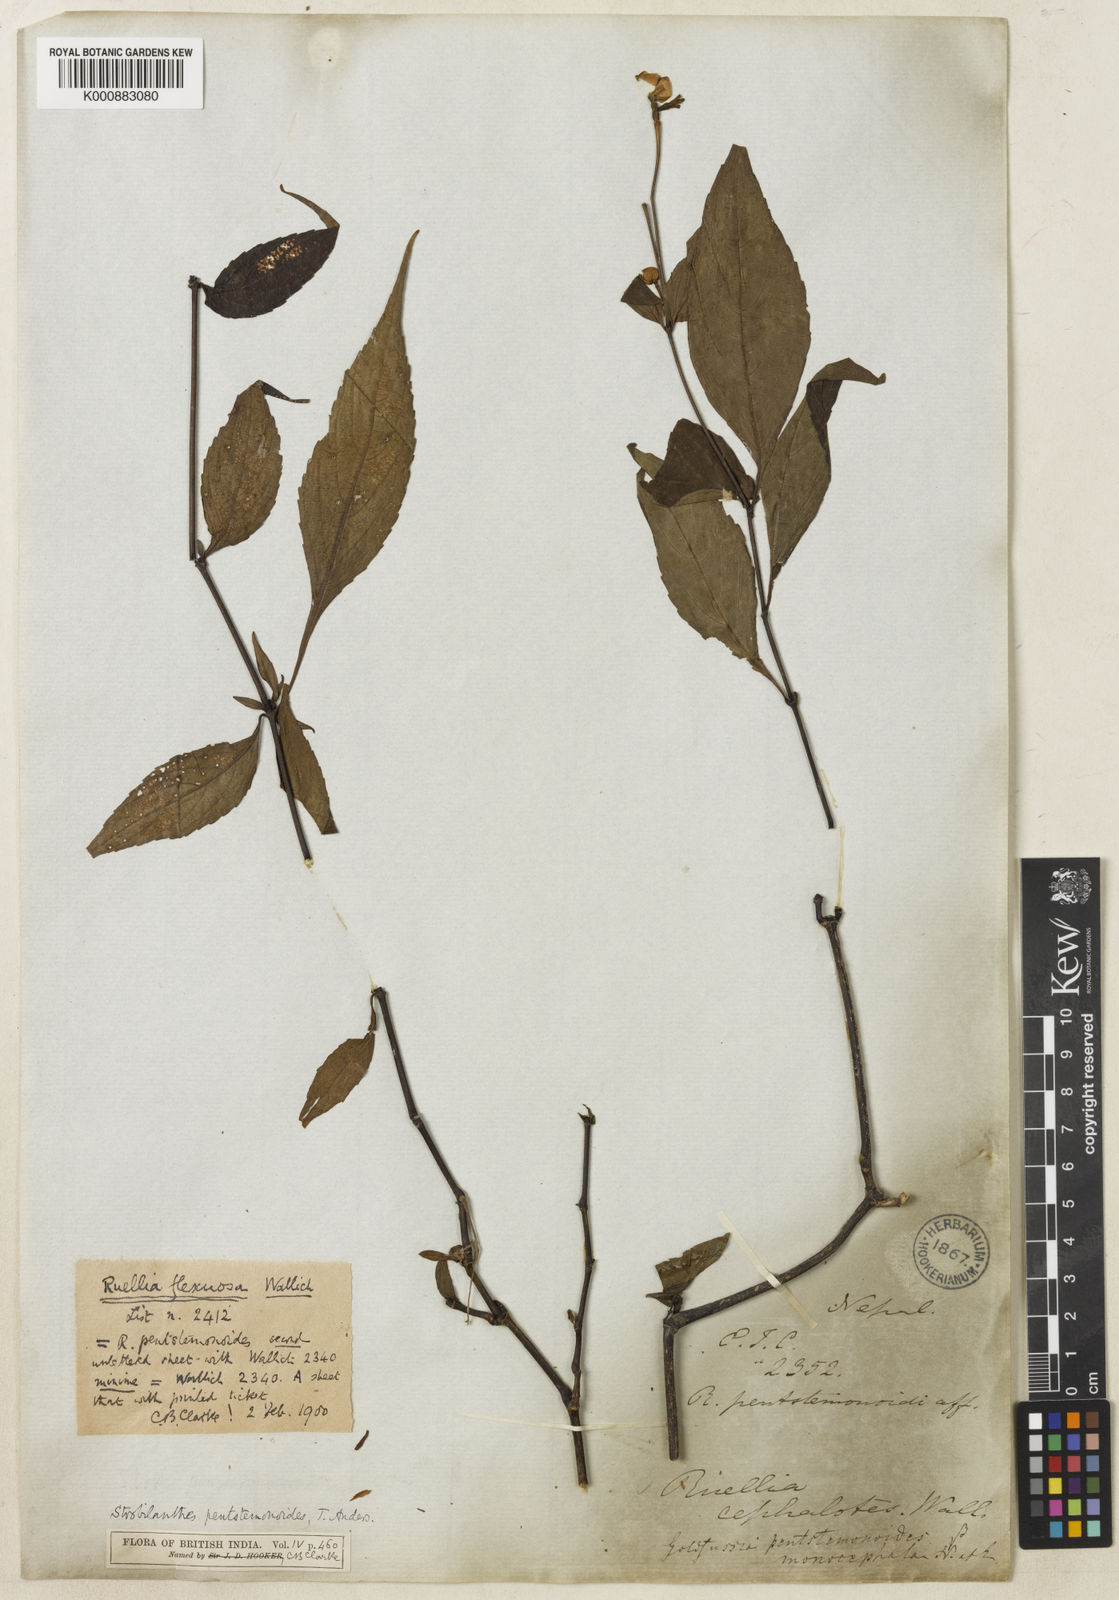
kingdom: Plantae
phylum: Tracheophyta
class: Magnoliopsida
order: Lamiales
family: Acanthaceae
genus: Strobilanthes
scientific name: Strobilanthes
